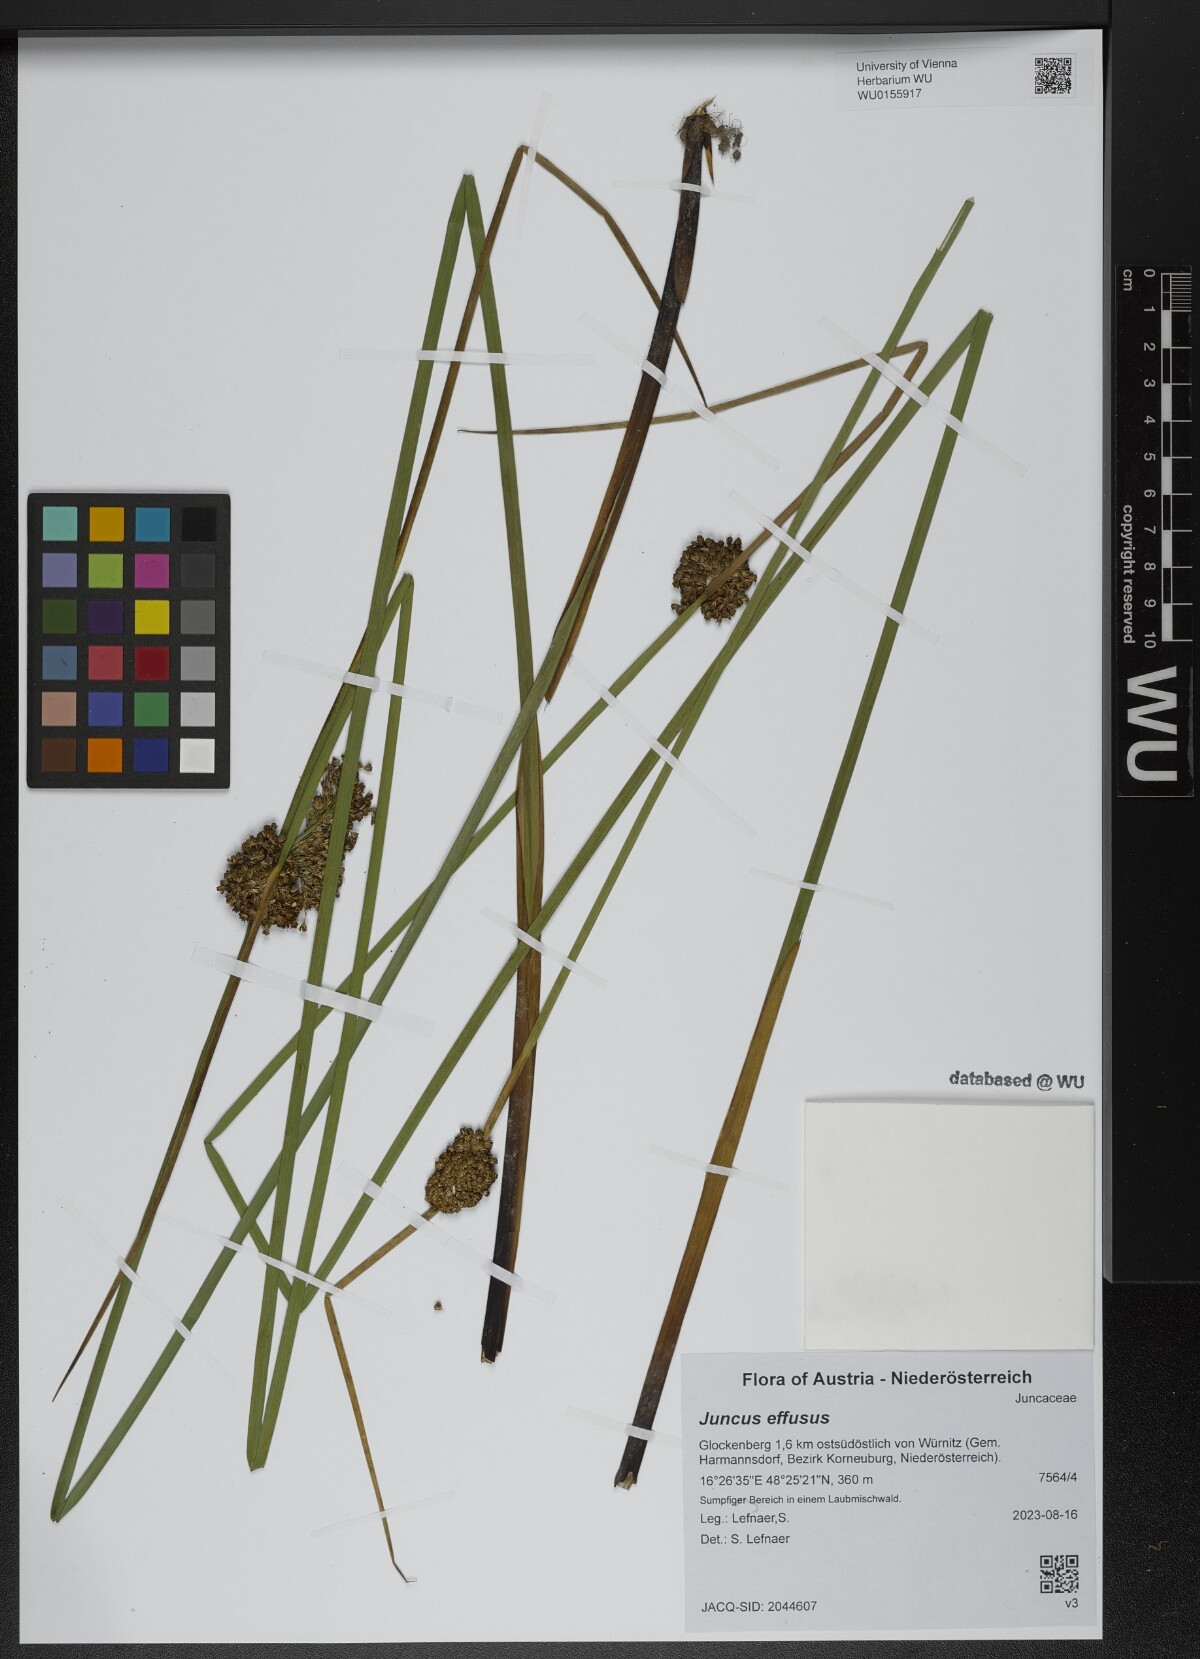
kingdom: Plantae
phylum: Tracheophyta
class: Liliopsida
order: Poales
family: Juncaceae
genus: Juncus
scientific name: Juncus effusus
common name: Soft rush
